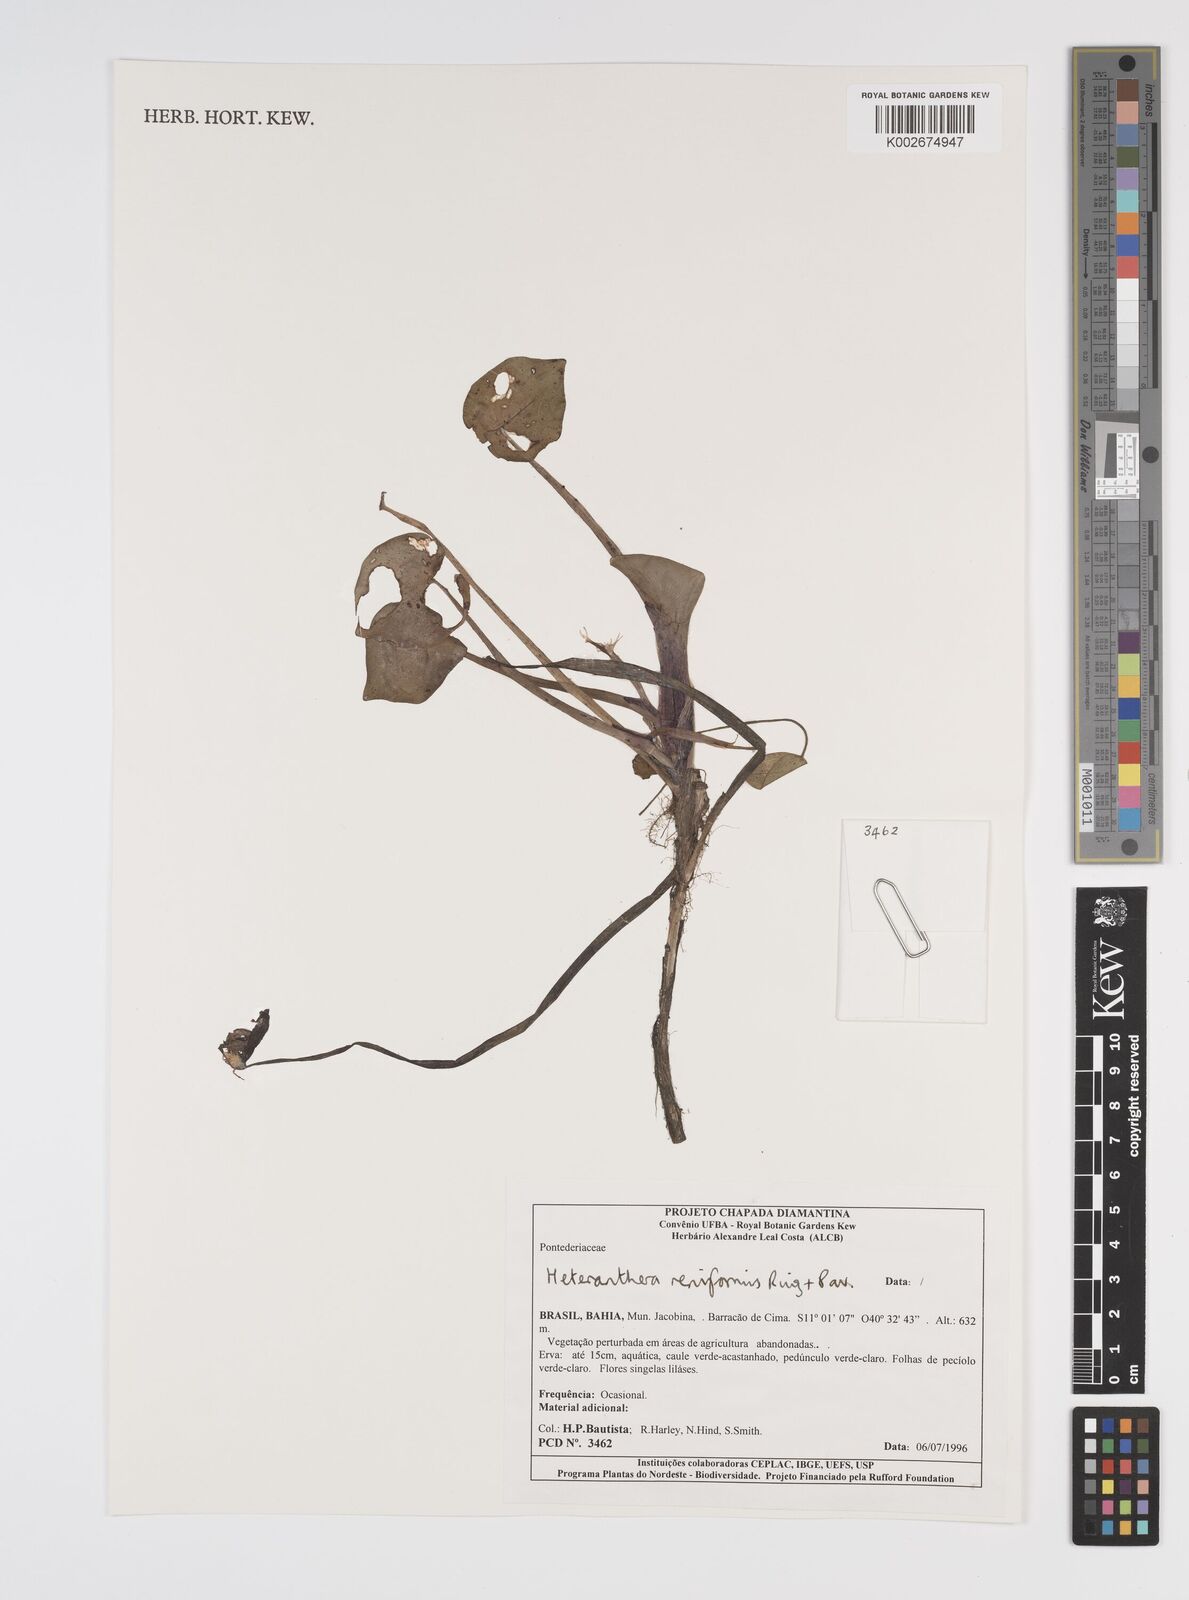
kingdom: Plantae
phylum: Tracheophyta
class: Liliopsida
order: Commelinales
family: Pontederiaceae
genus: Heteranthera
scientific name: Heteranthera reniformis
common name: Kidneyleaf mudplantain
